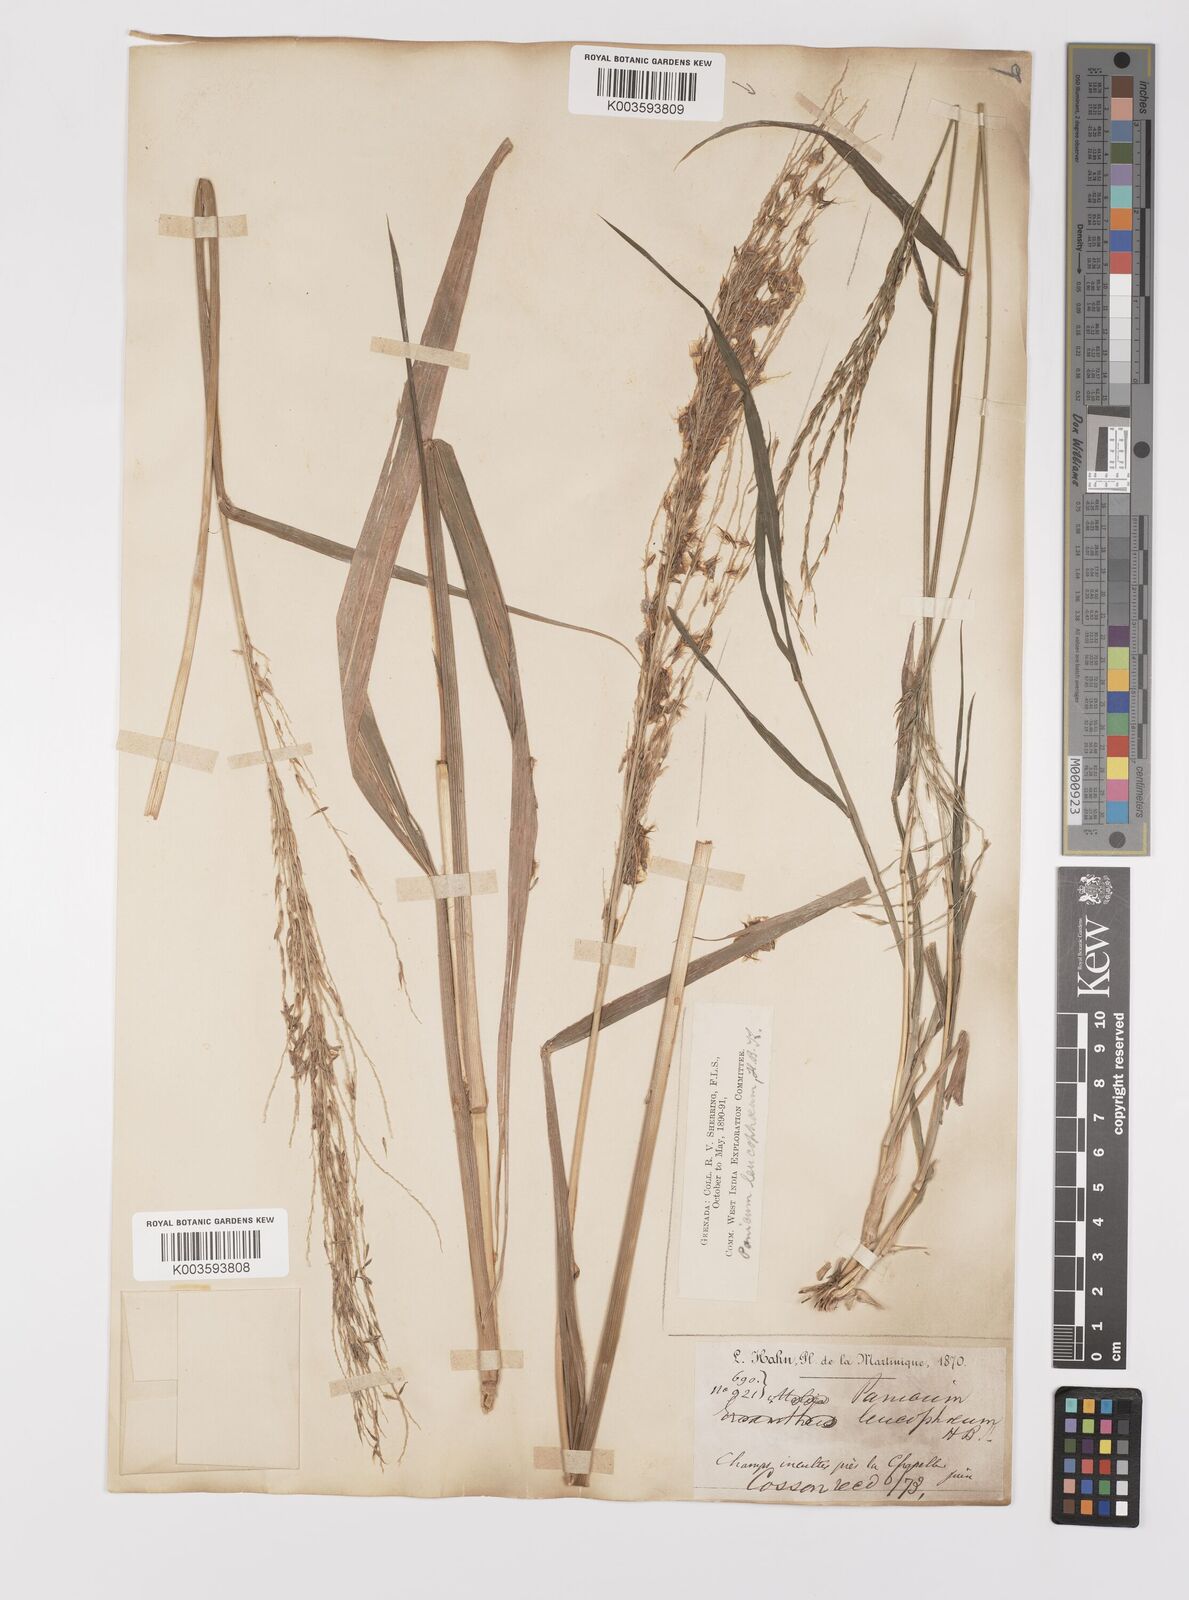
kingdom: Plantae
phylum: Tracheophyta
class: Liliopsida
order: Poales
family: Poaceae
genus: Digitaria
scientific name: Digitaria insularis
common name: Sourgrass
